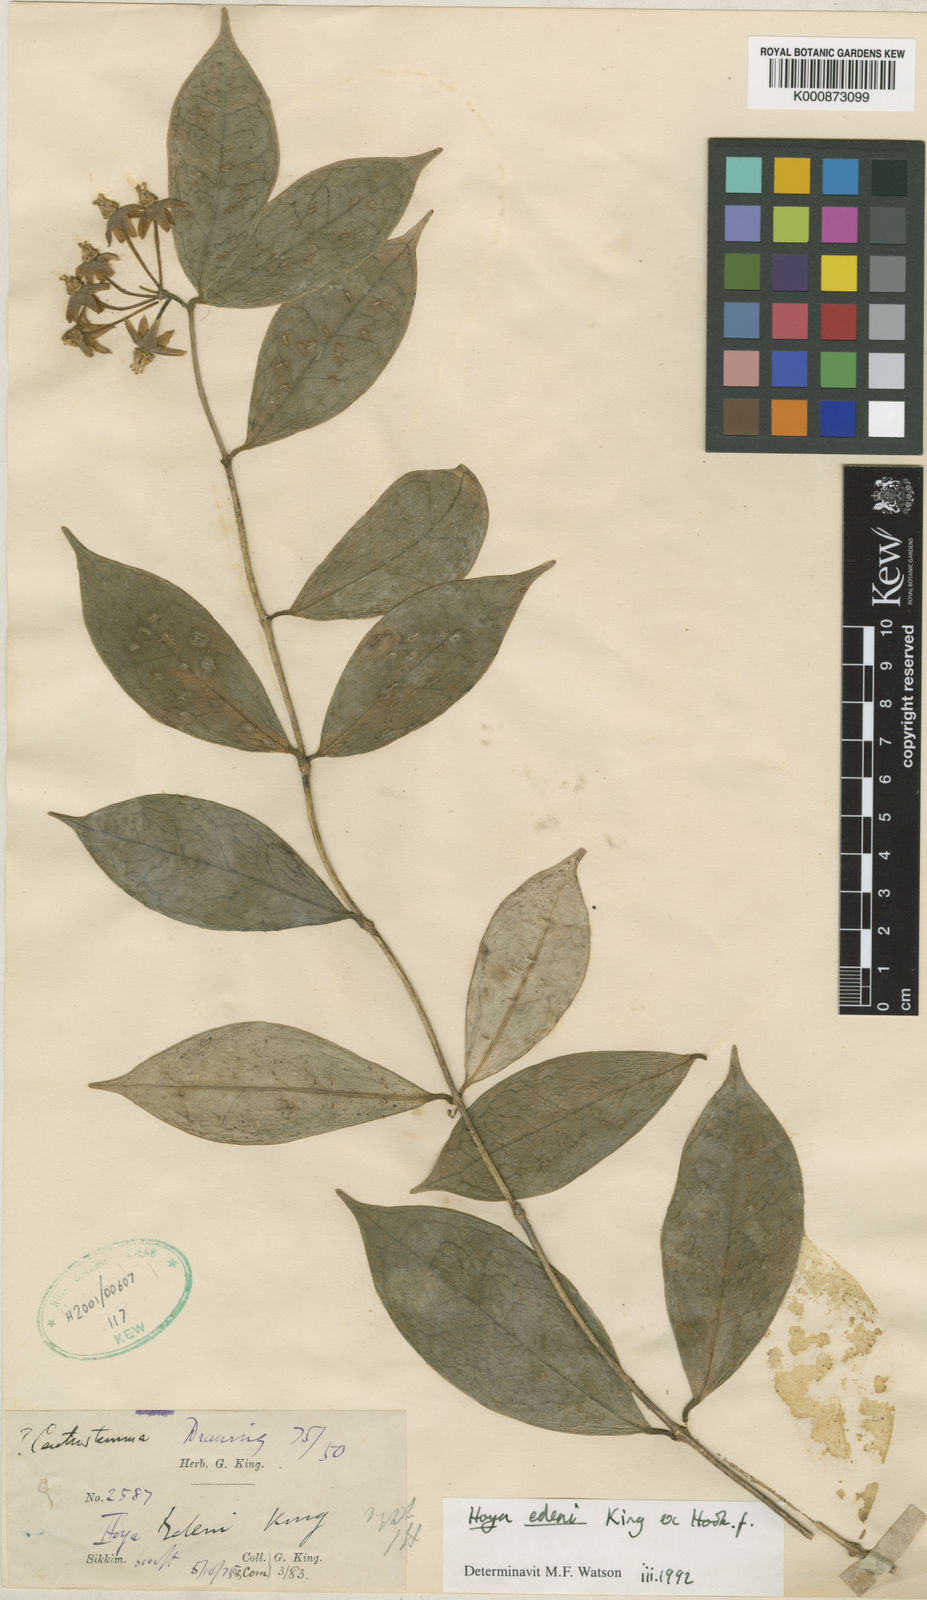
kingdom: Plantae
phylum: Tracheophyta
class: Magnoliopsida
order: Gentianales
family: Apocynaceae
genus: Hoya
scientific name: Hoya edeni
